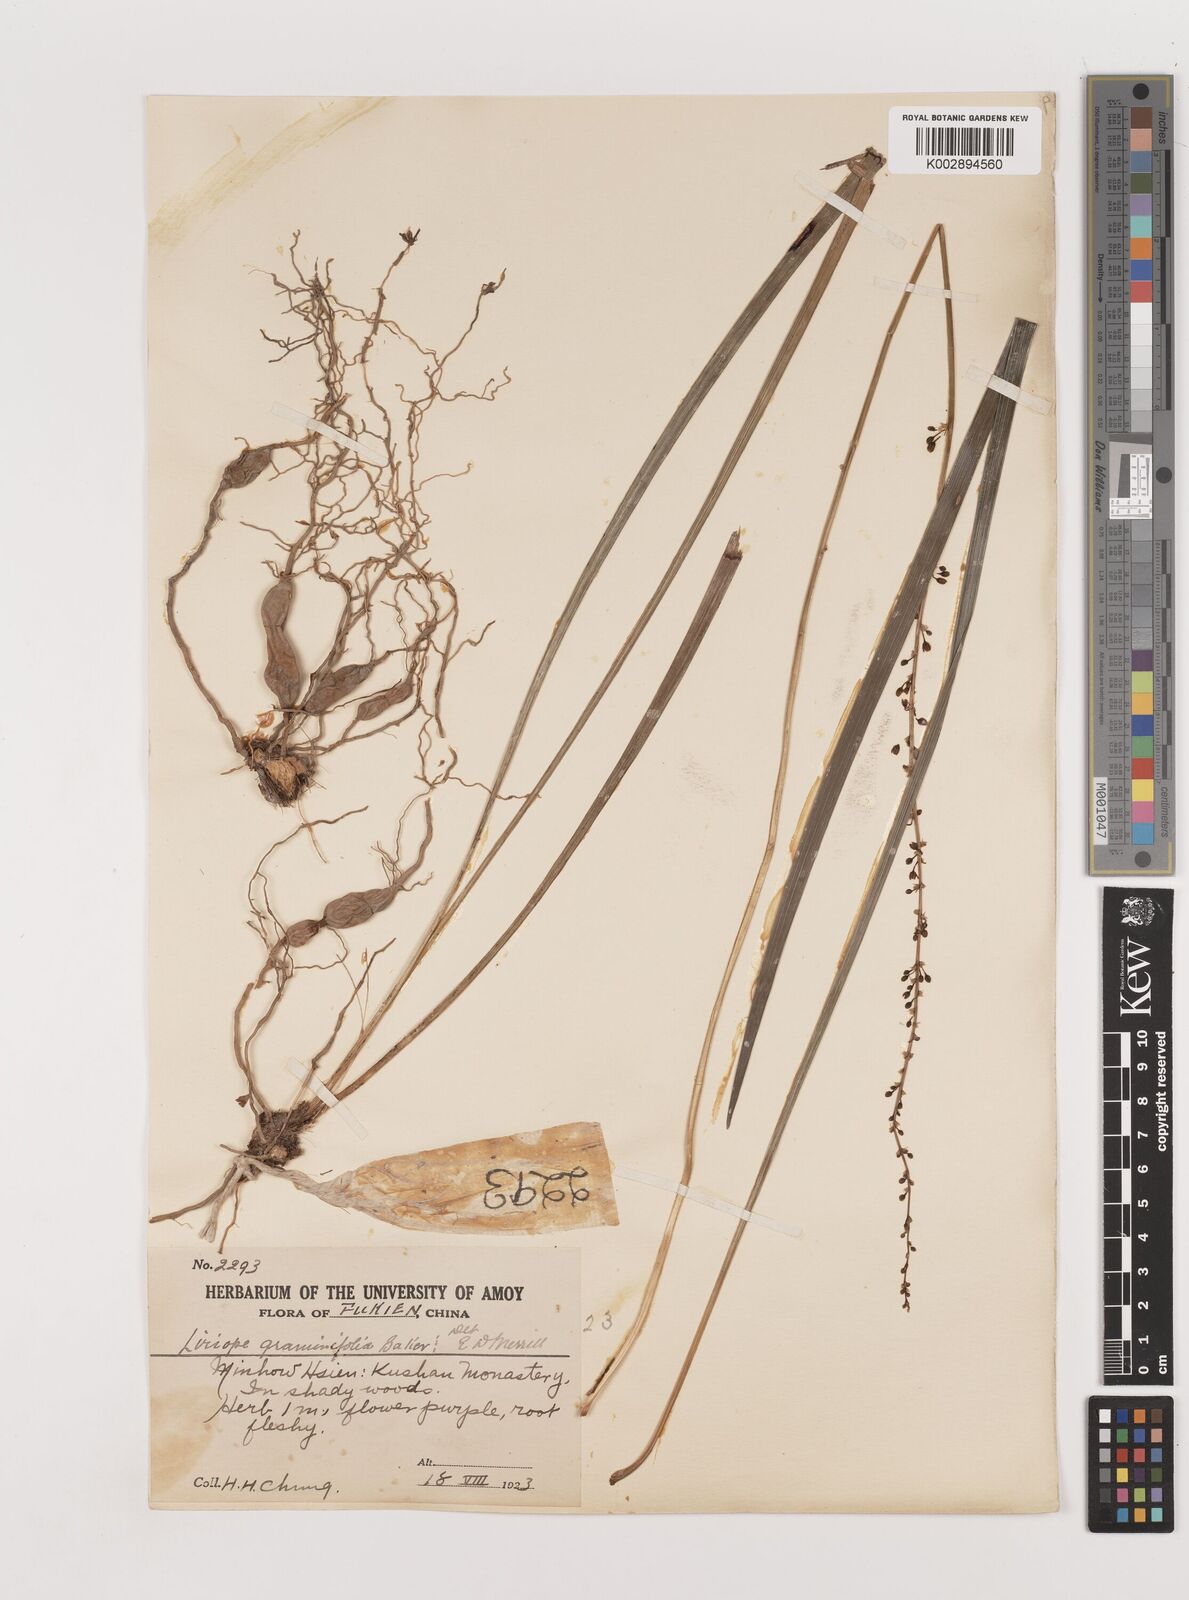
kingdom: Plantae
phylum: Tracheophyta
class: Liliopsida
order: Asparagales
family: Asparagaceae
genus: Liriope
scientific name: Liriope spicata
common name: Creeping liriope
